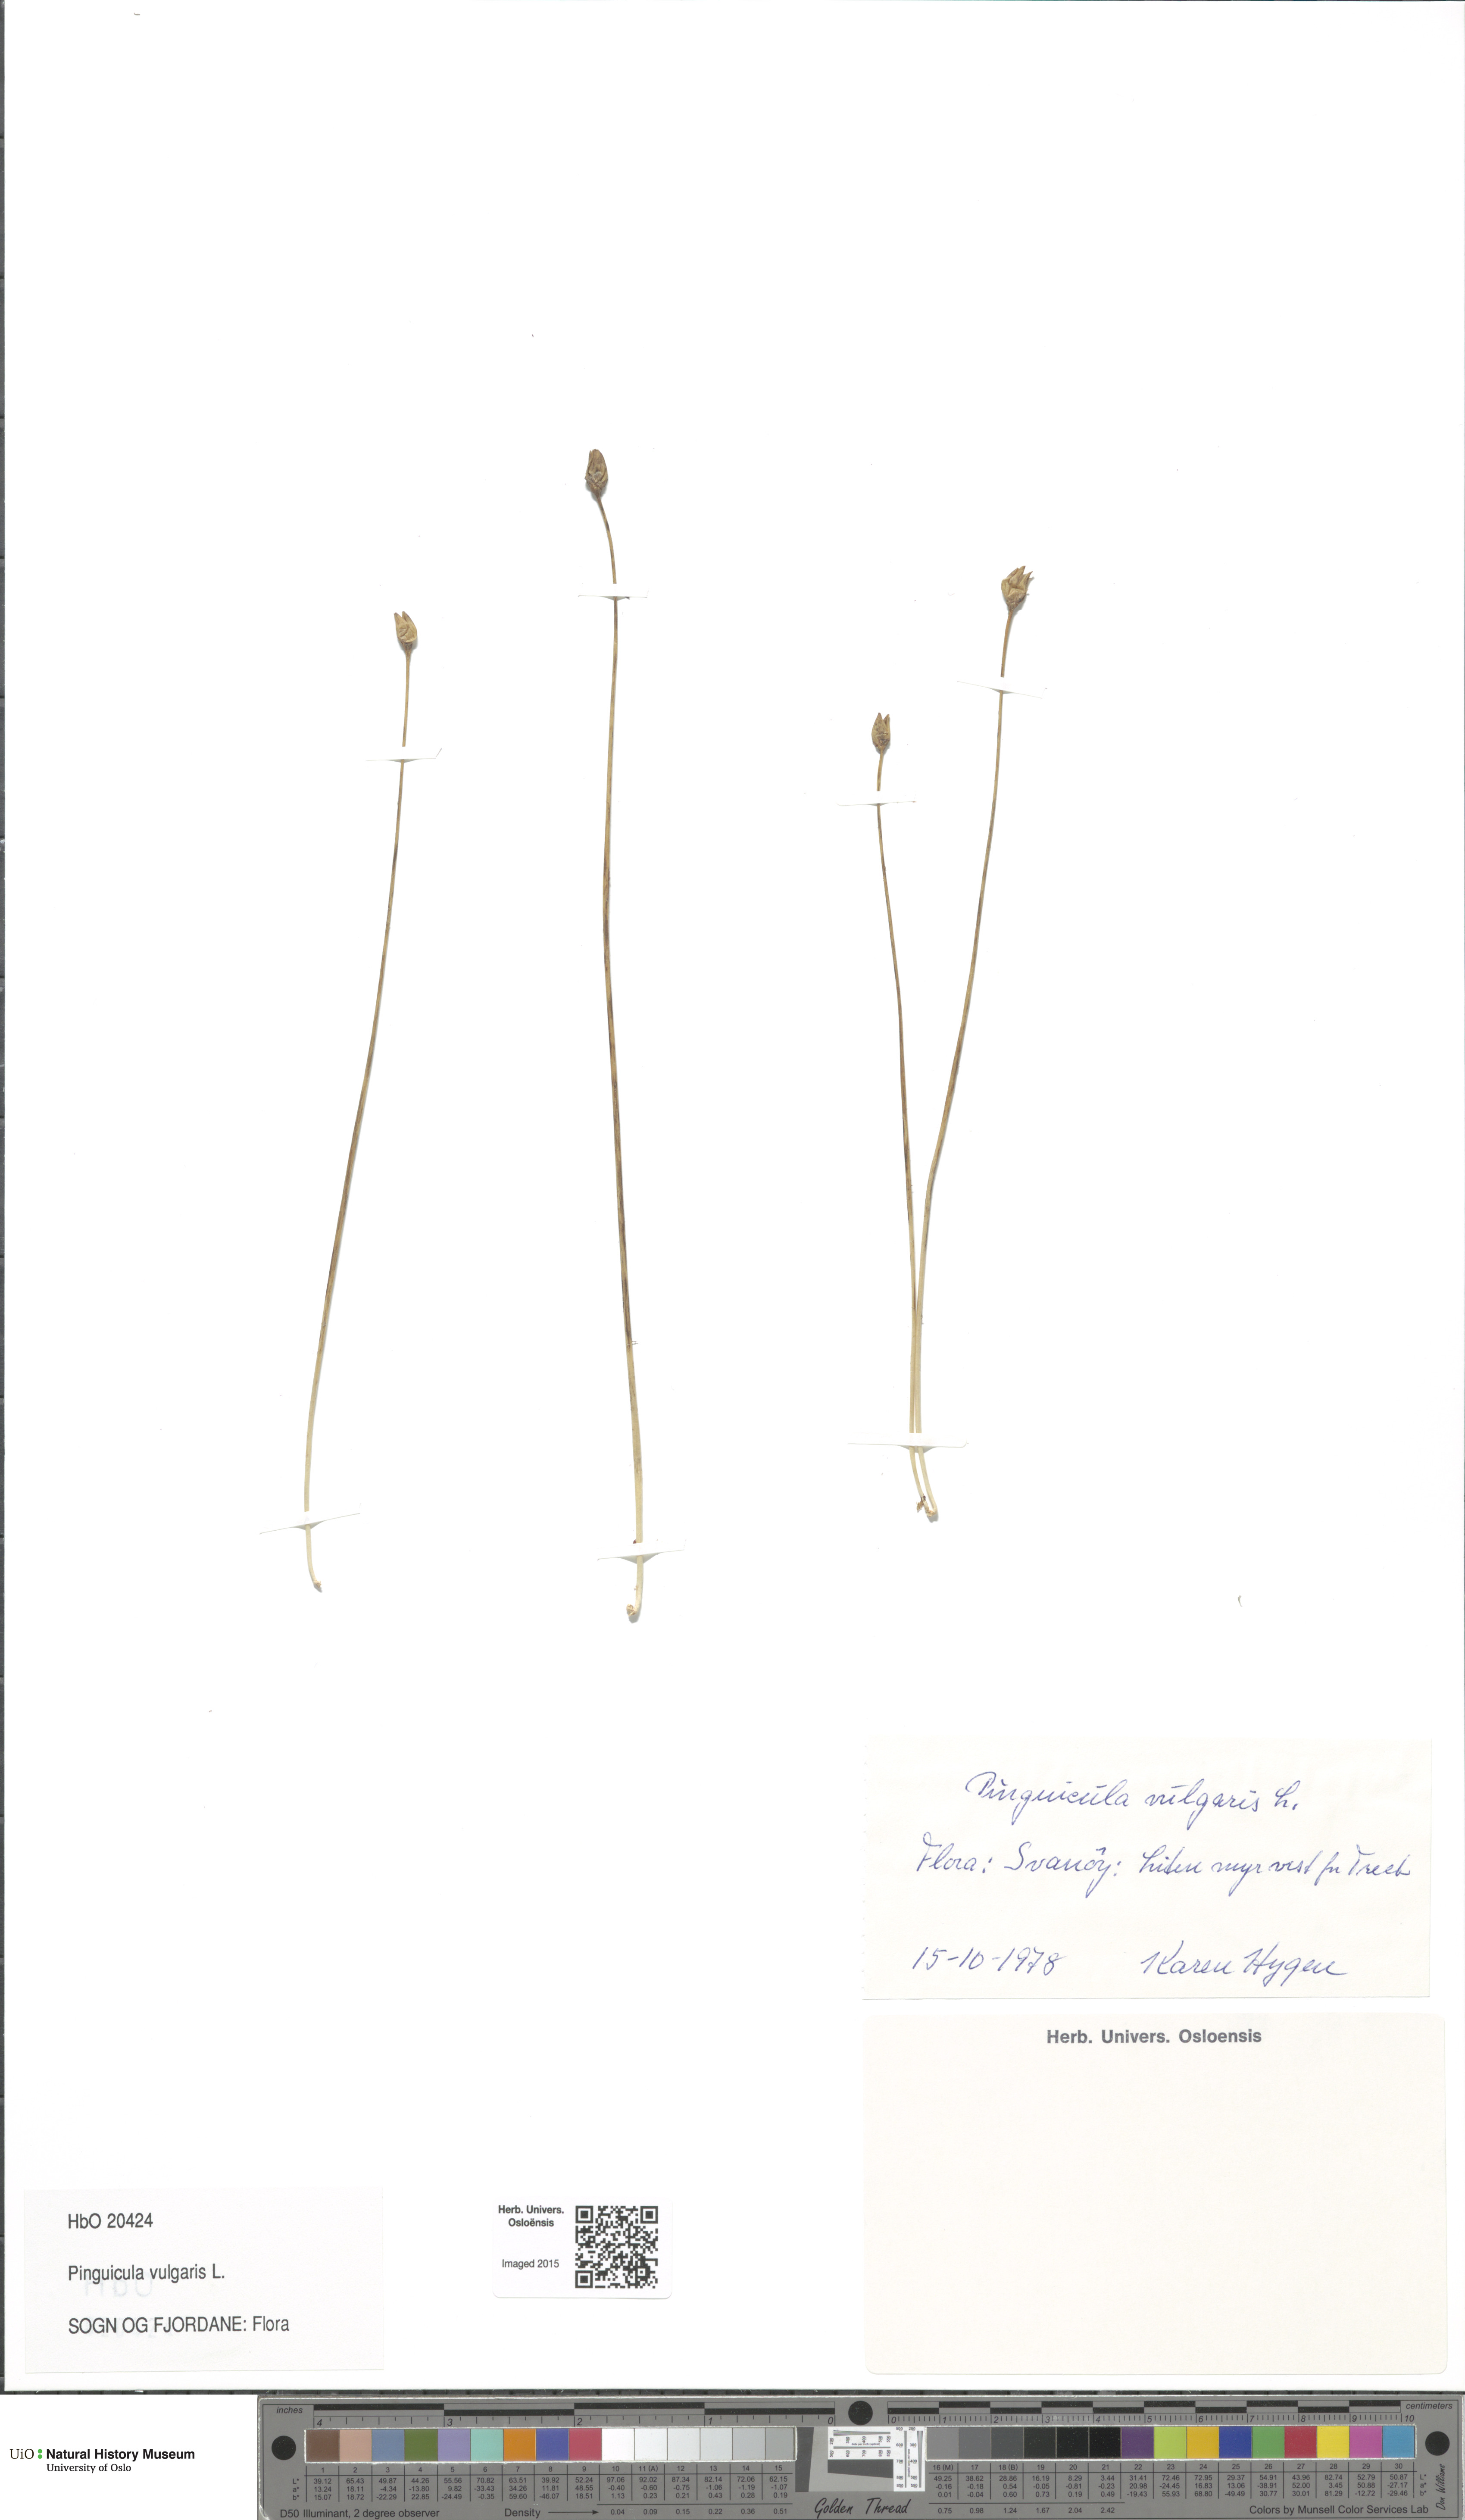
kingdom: Plantae
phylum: Tracheophyta
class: Magnoliopsida
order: Lamiales
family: Lentibulariaceae
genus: Pinguicula
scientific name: Pinguicula vulgaris
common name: Common butterwort
